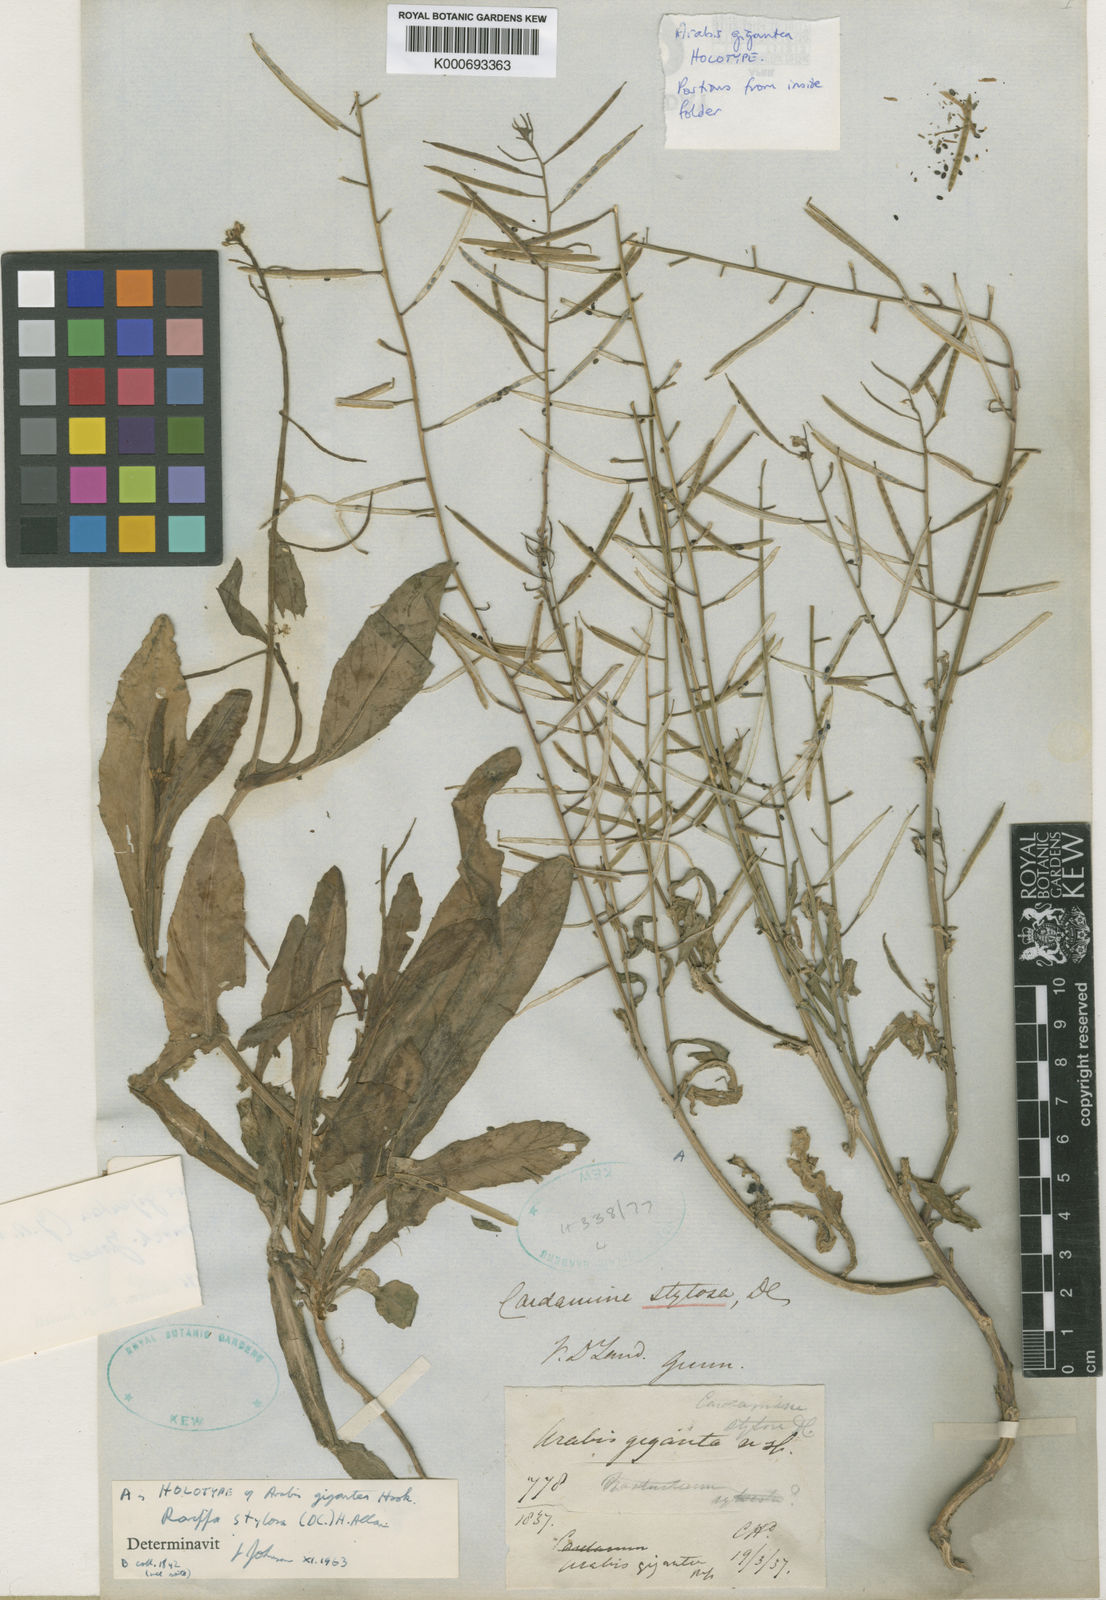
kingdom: Plantae
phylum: Tracheophyta
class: Magnoliopsida
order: Brassicales
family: Brassicaceae
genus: Rorippa
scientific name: Rorippa gigantea
